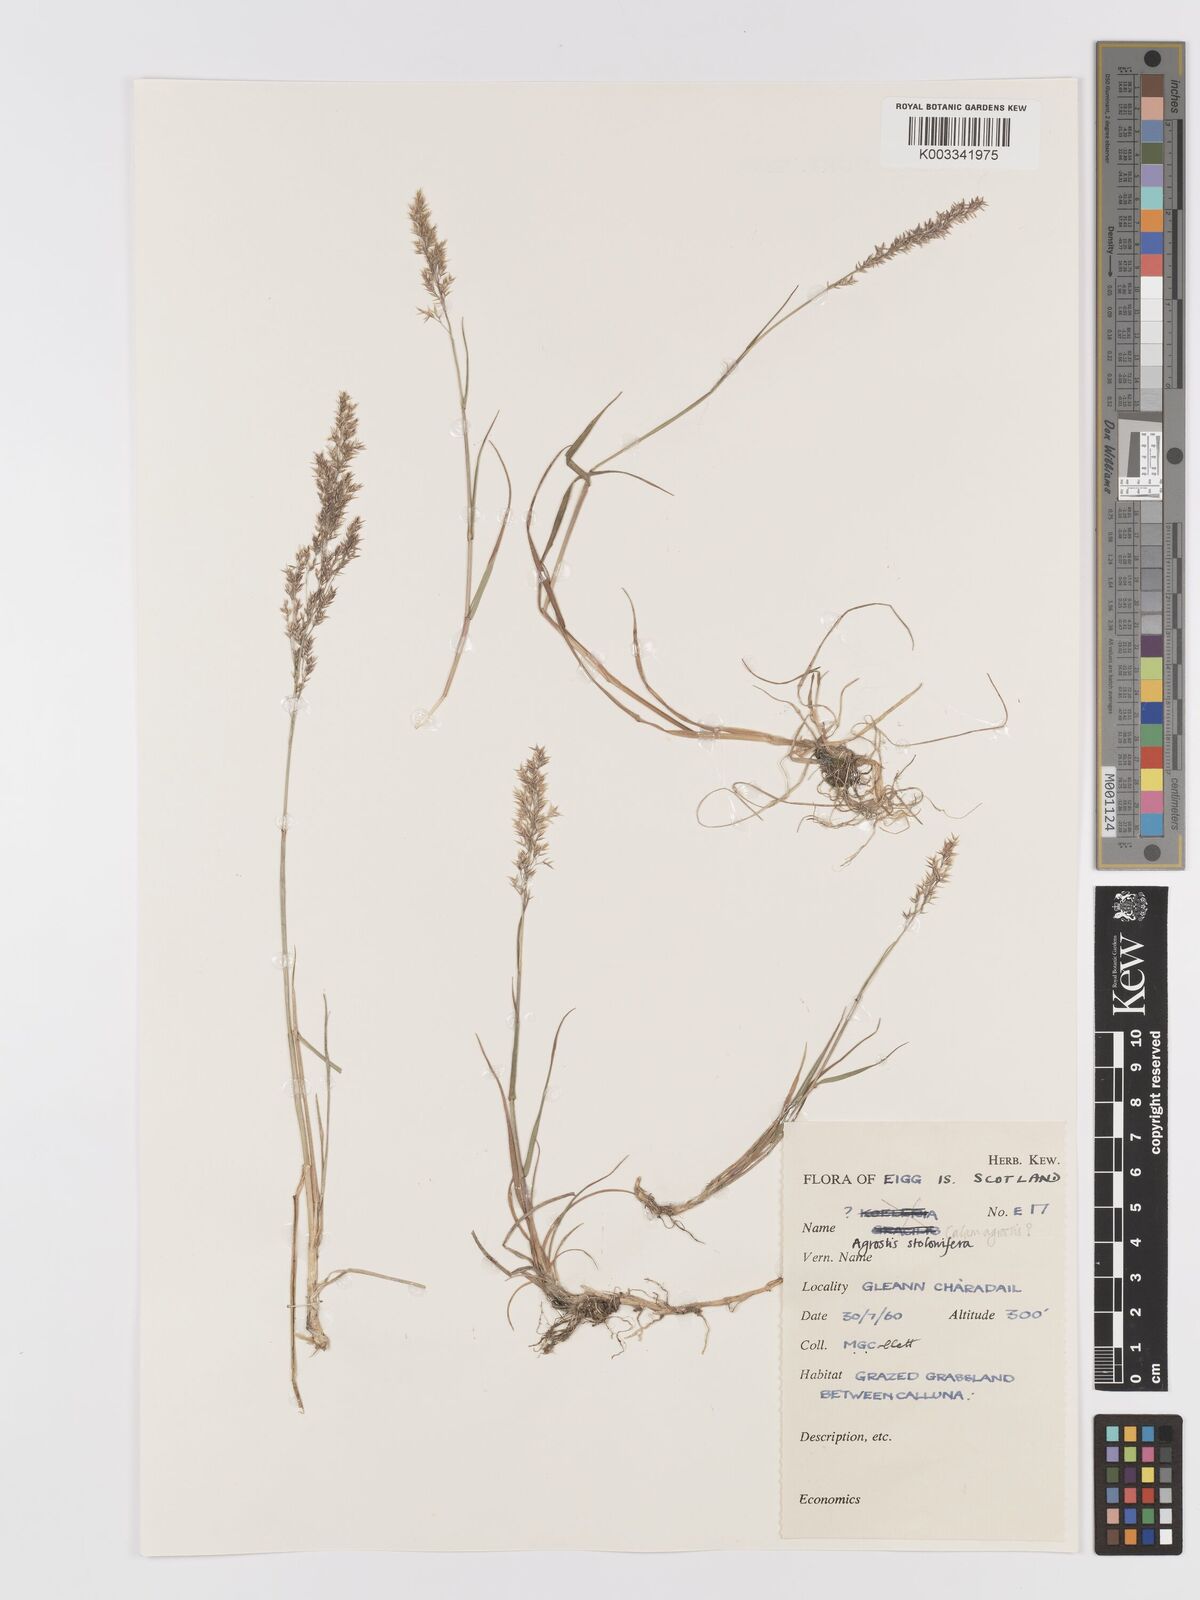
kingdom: Plantae
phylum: Tracheophyta
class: Liliopsida
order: Poales
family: Poaceae
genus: Agrostis
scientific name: Agrostis stolonifera
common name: Creeping bentgrass
